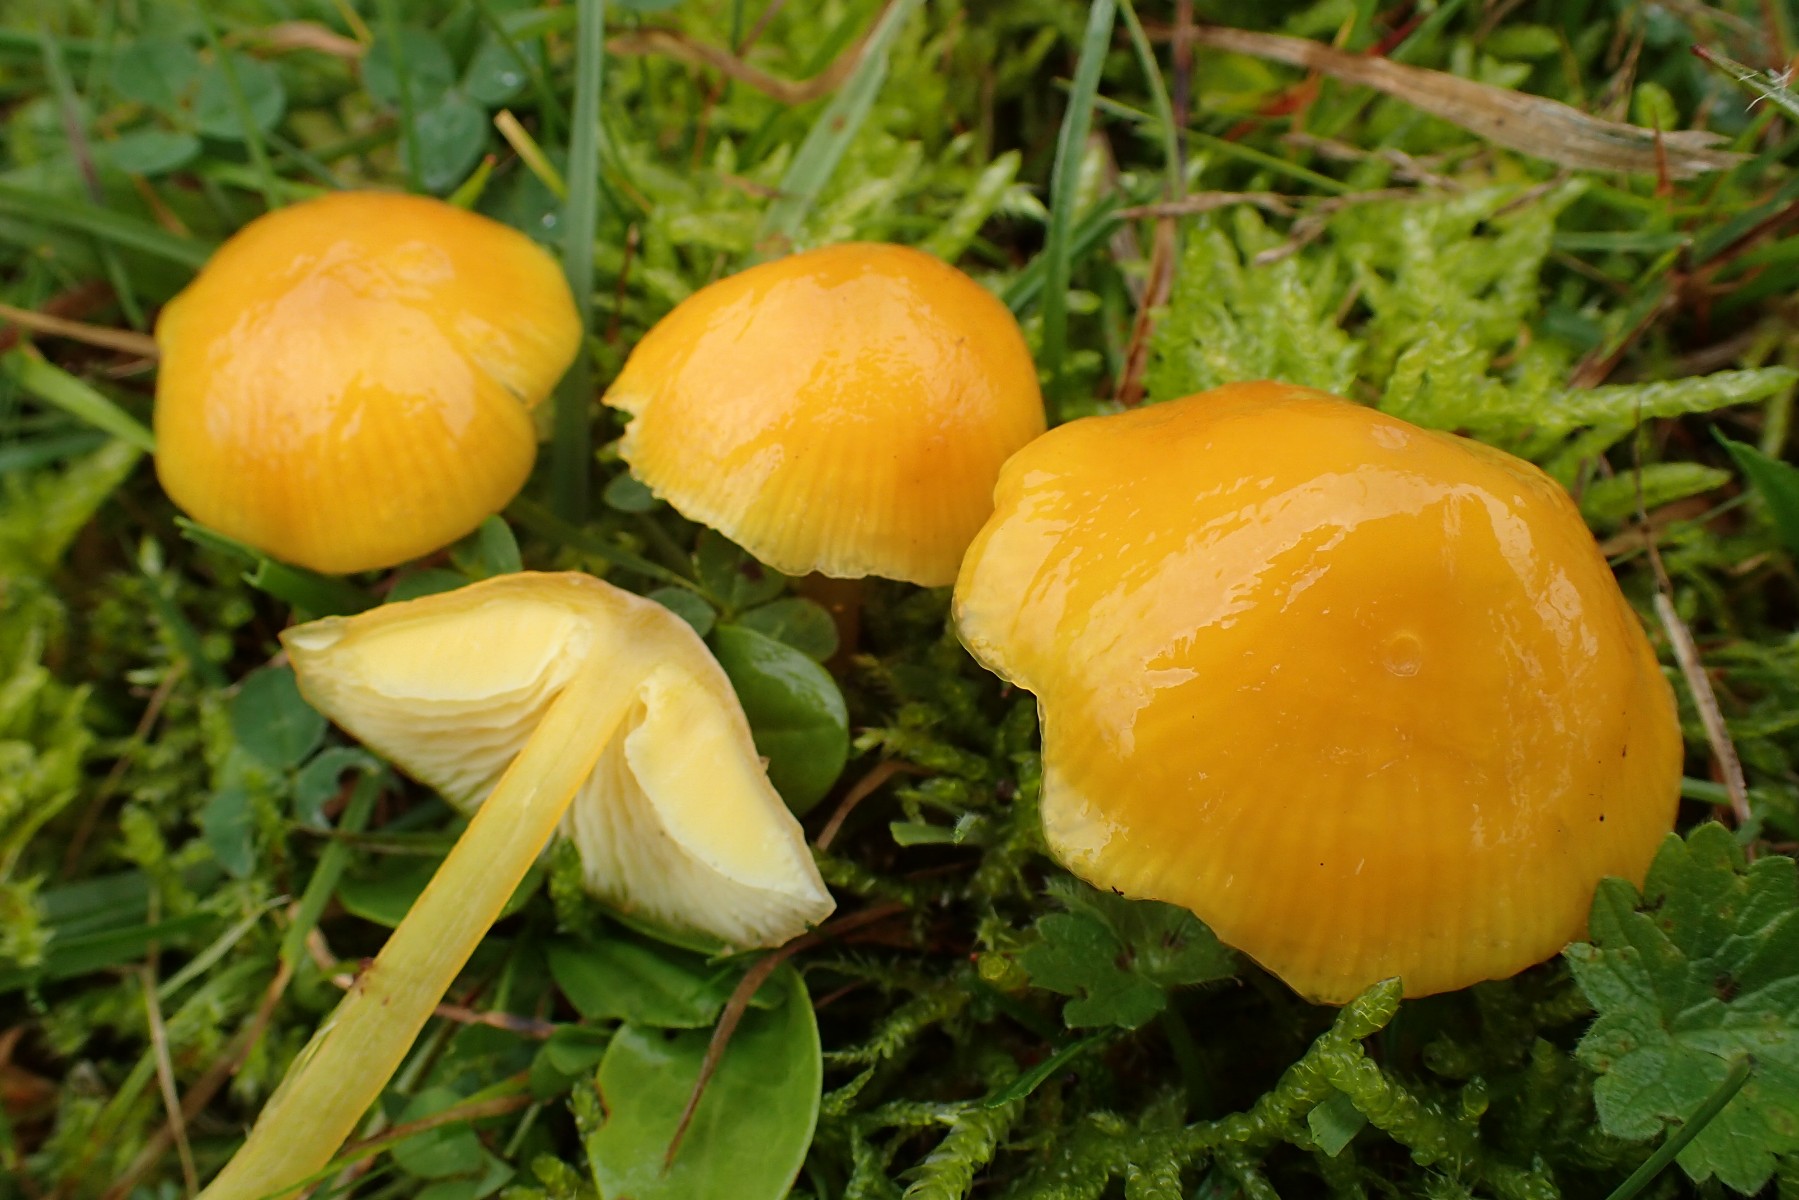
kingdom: Fungi
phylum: Basidiomycota
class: Agaricomycetes
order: Agaricales
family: Hygrophoraceae
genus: Hygrocybe
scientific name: Hygrocybe chlorophana
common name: gul vokshat
